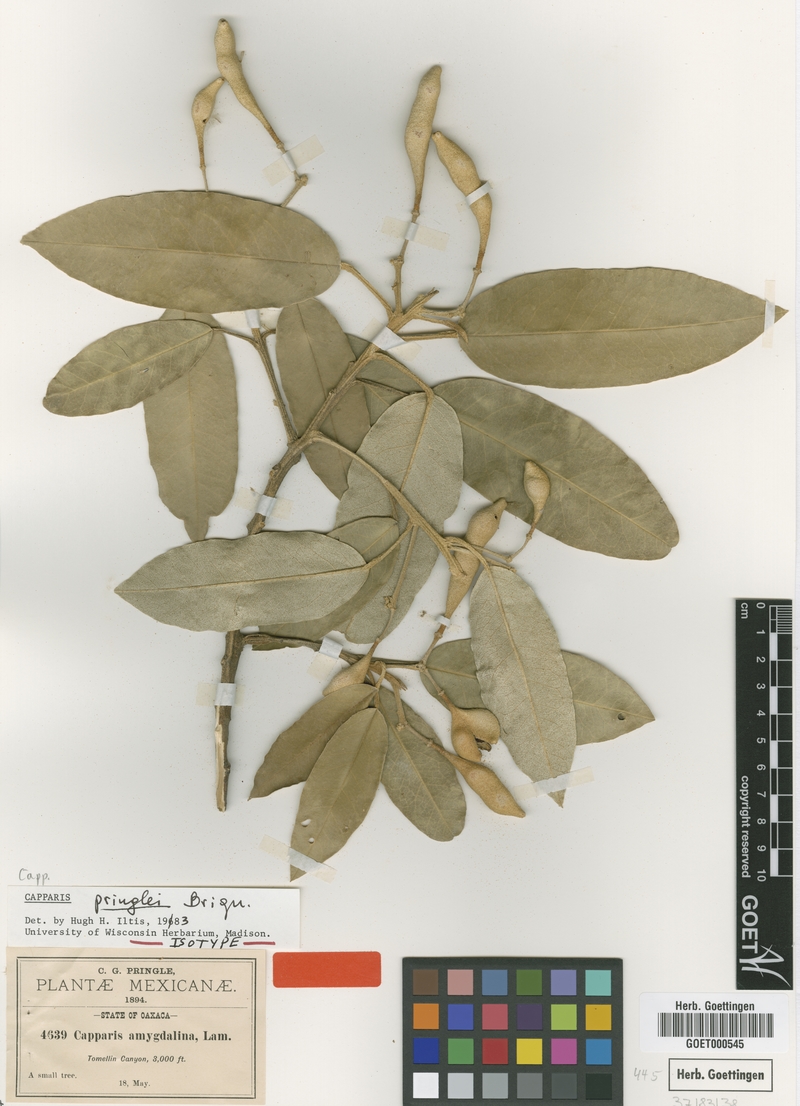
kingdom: Plantae
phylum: Tracheophyta
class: Magnoliopsida
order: Brassicales
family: Capparaceae
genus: Quadrella
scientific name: Quadrella pringlei
